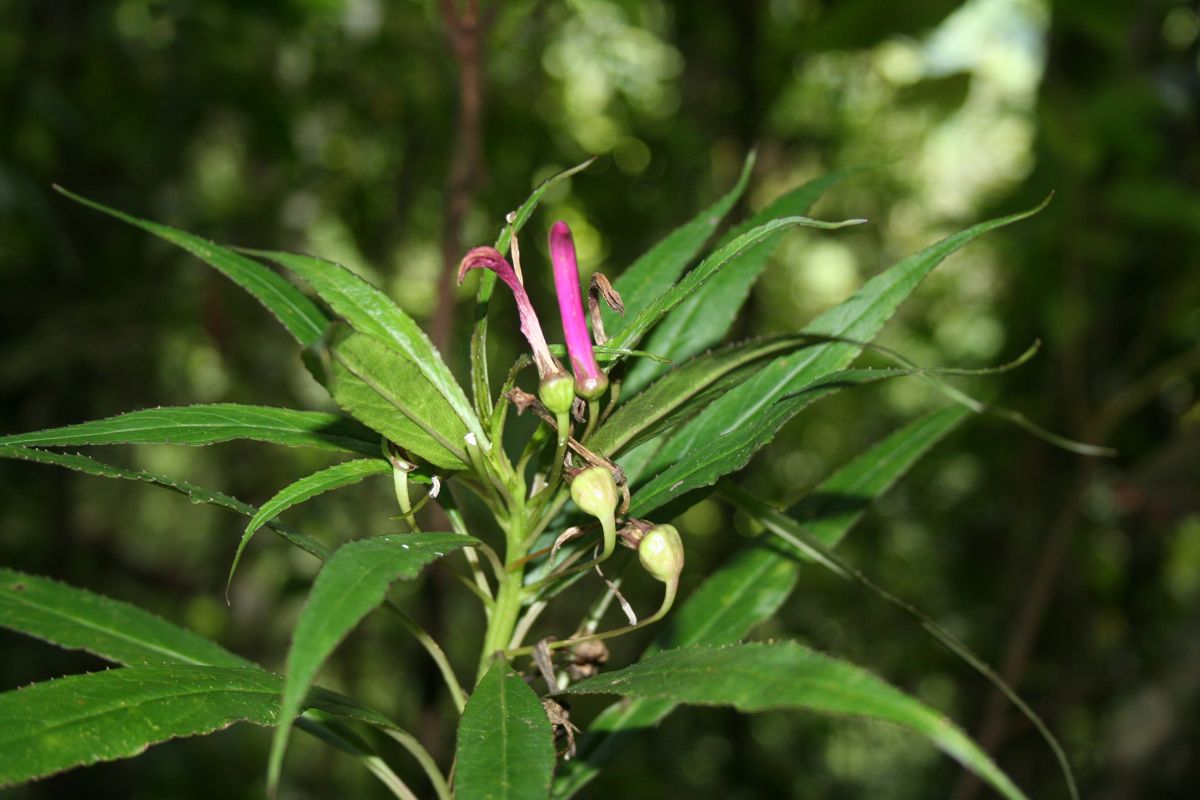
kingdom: Plantae
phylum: Tracheophyta
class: Magnoliopsida
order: Asterales
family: Campanulaceae
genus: Lobelia
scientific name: Lobelia tatea
